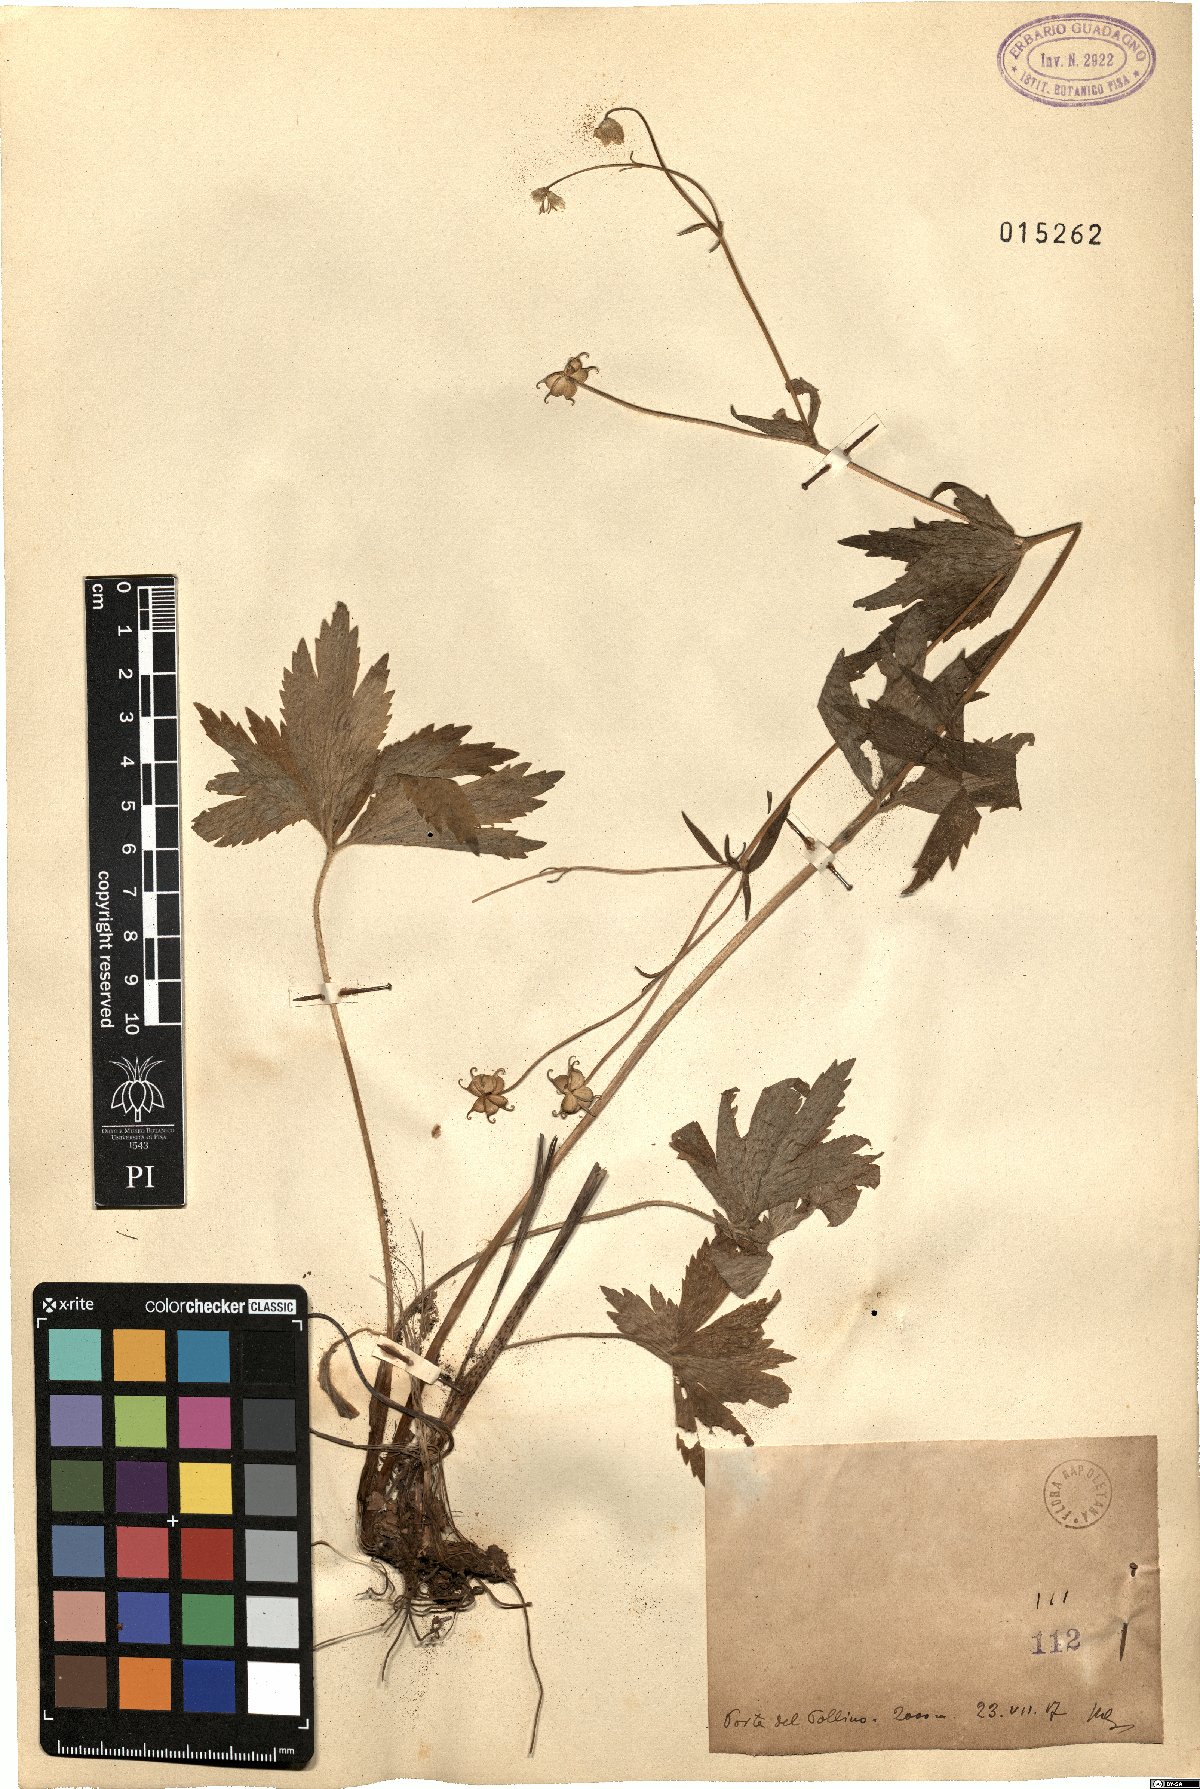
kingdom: Plantae
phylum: Tracheophyta
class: Magnoliopsida
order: Ranunculales
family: Ranunculaceae
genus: Ranunculus
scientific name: Ranunculus
